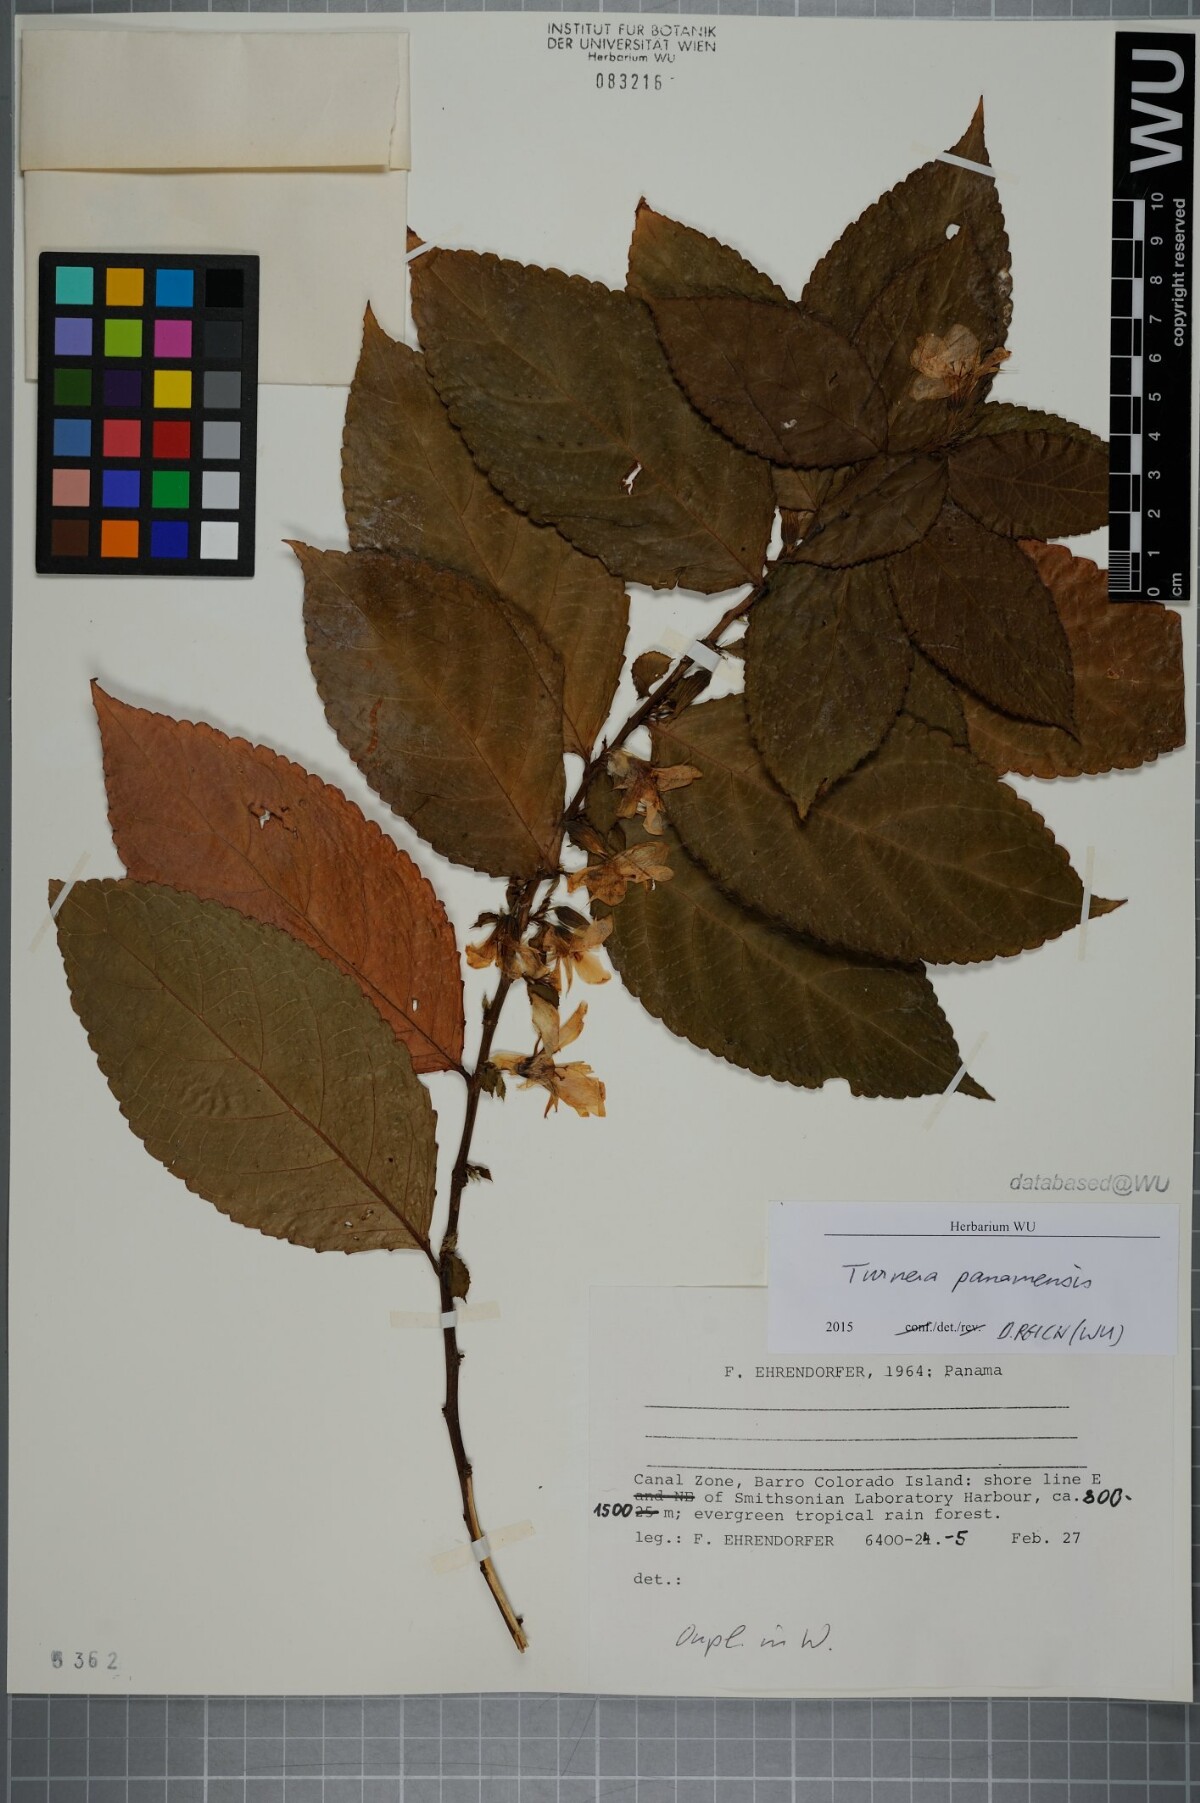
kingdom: Plantae
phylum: Tracheophyta
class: Magnoliopsida
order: Malpighiales
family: Turneraceae
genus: Turnera
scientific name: Turnera panamensis
